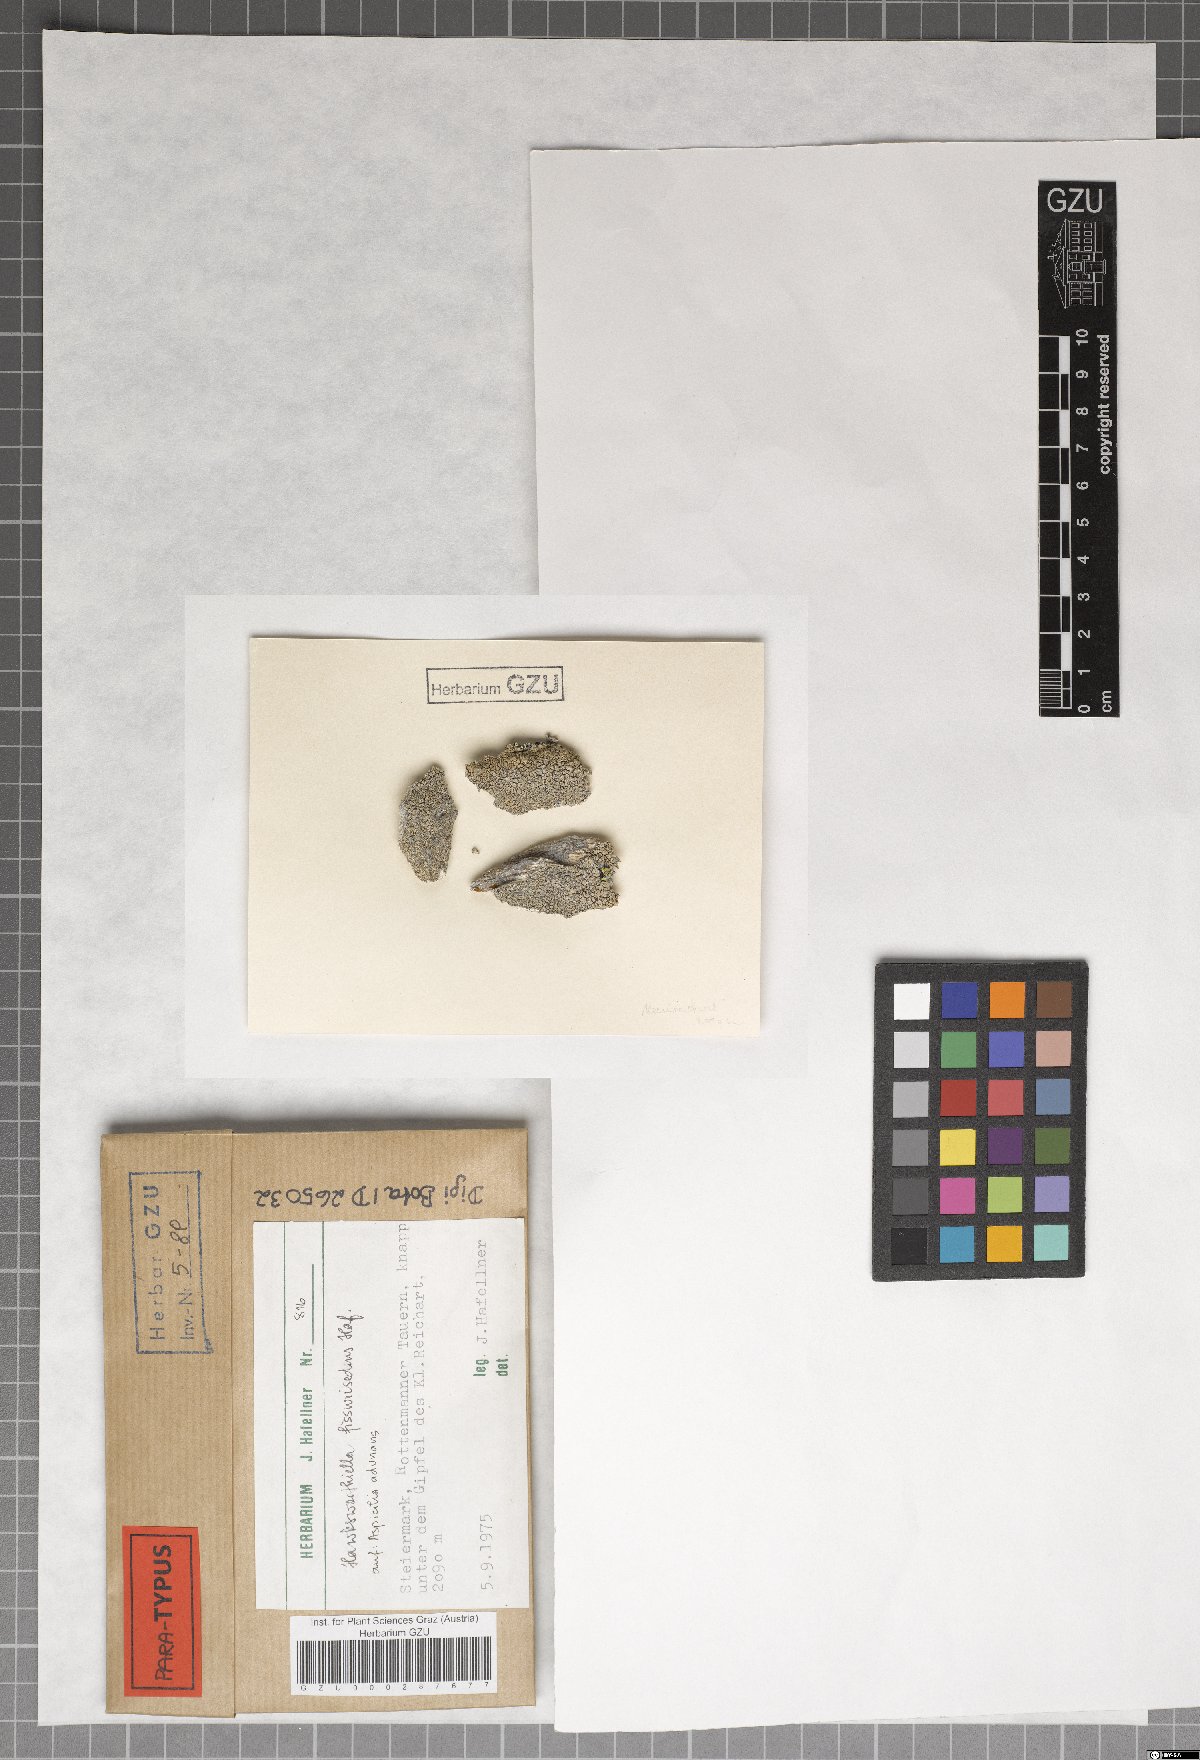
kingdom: Fungi
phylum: Ascomycota
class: Eurotiomycetes
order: Verrucariales
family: Adelococcaceae
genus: Sagediopsis
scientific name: Sagediopsis fissurisedens
